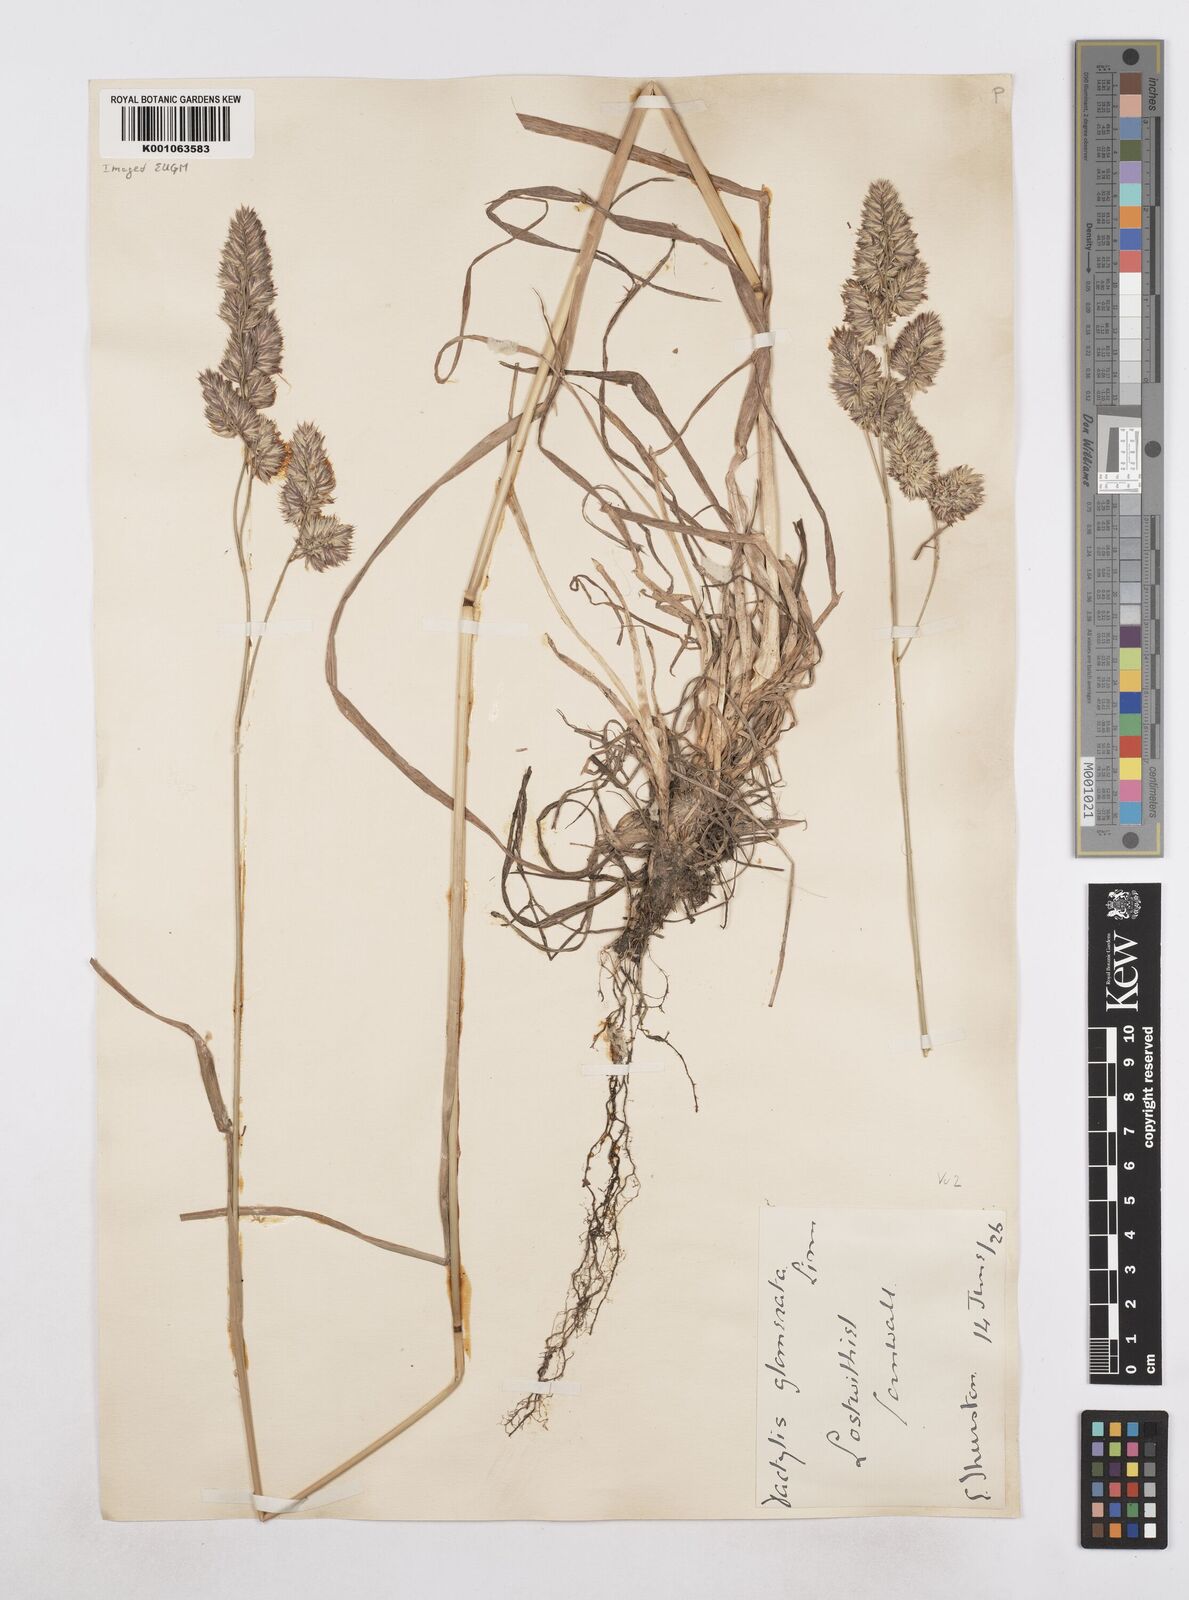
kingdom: Plantae
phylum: Tracheophyta
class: Liliopsida
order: Poales
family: Poaceae
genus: Dactylis
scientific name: Dactylis glomerata
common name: Orchardgrass
